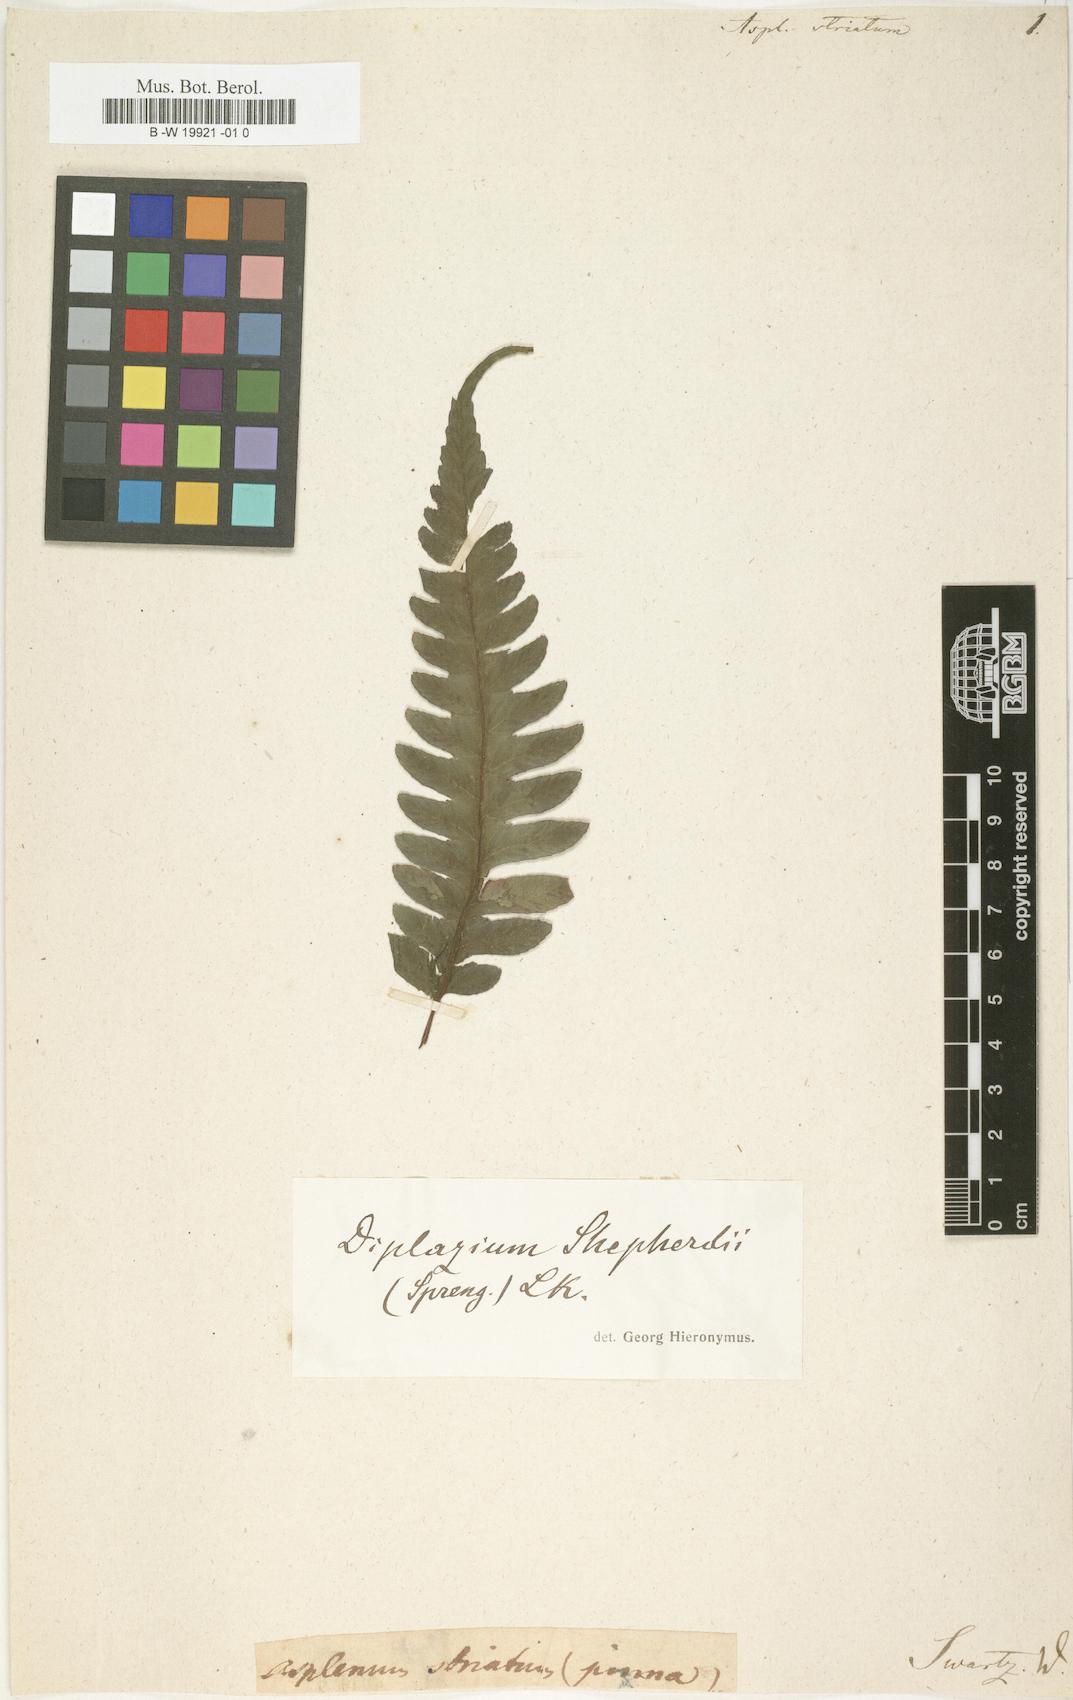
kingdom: Plantae
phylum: Tracheophyta
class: Polypodiopsida
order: Polypodiales
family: Athyriaceae
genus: Diplazium
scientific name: Diplazium
